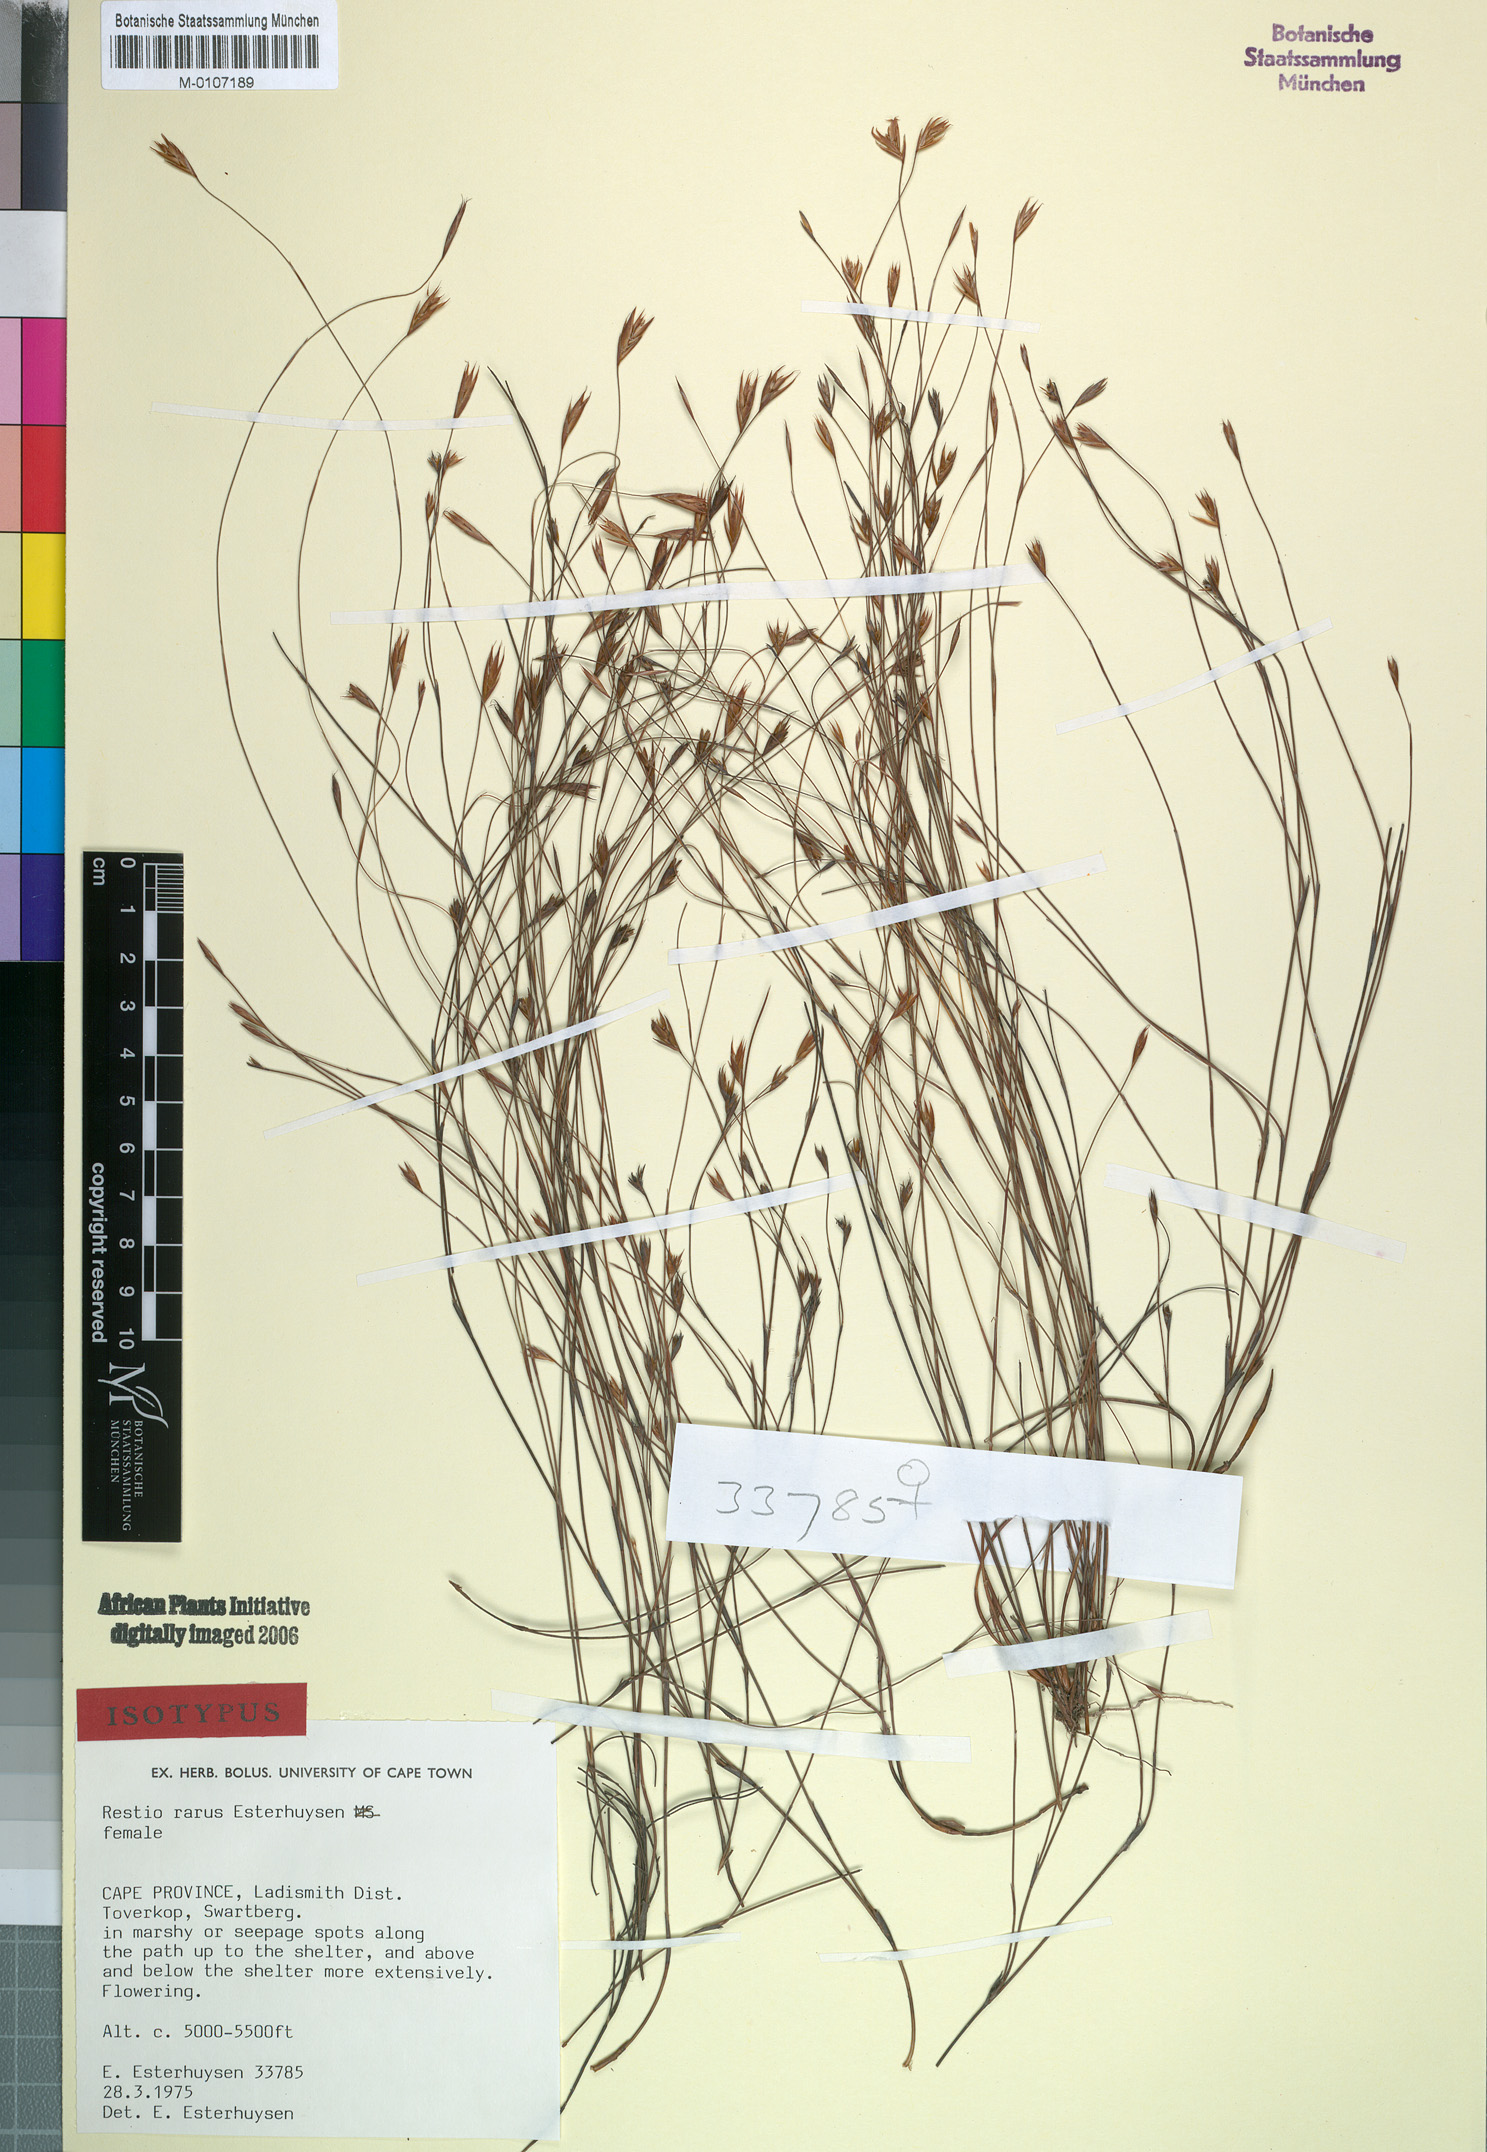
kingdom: Plantae
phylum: Tracheophyta
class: Liliopsida
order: Poales
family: Restionaceae
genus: Restio
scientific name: Restio rarus
